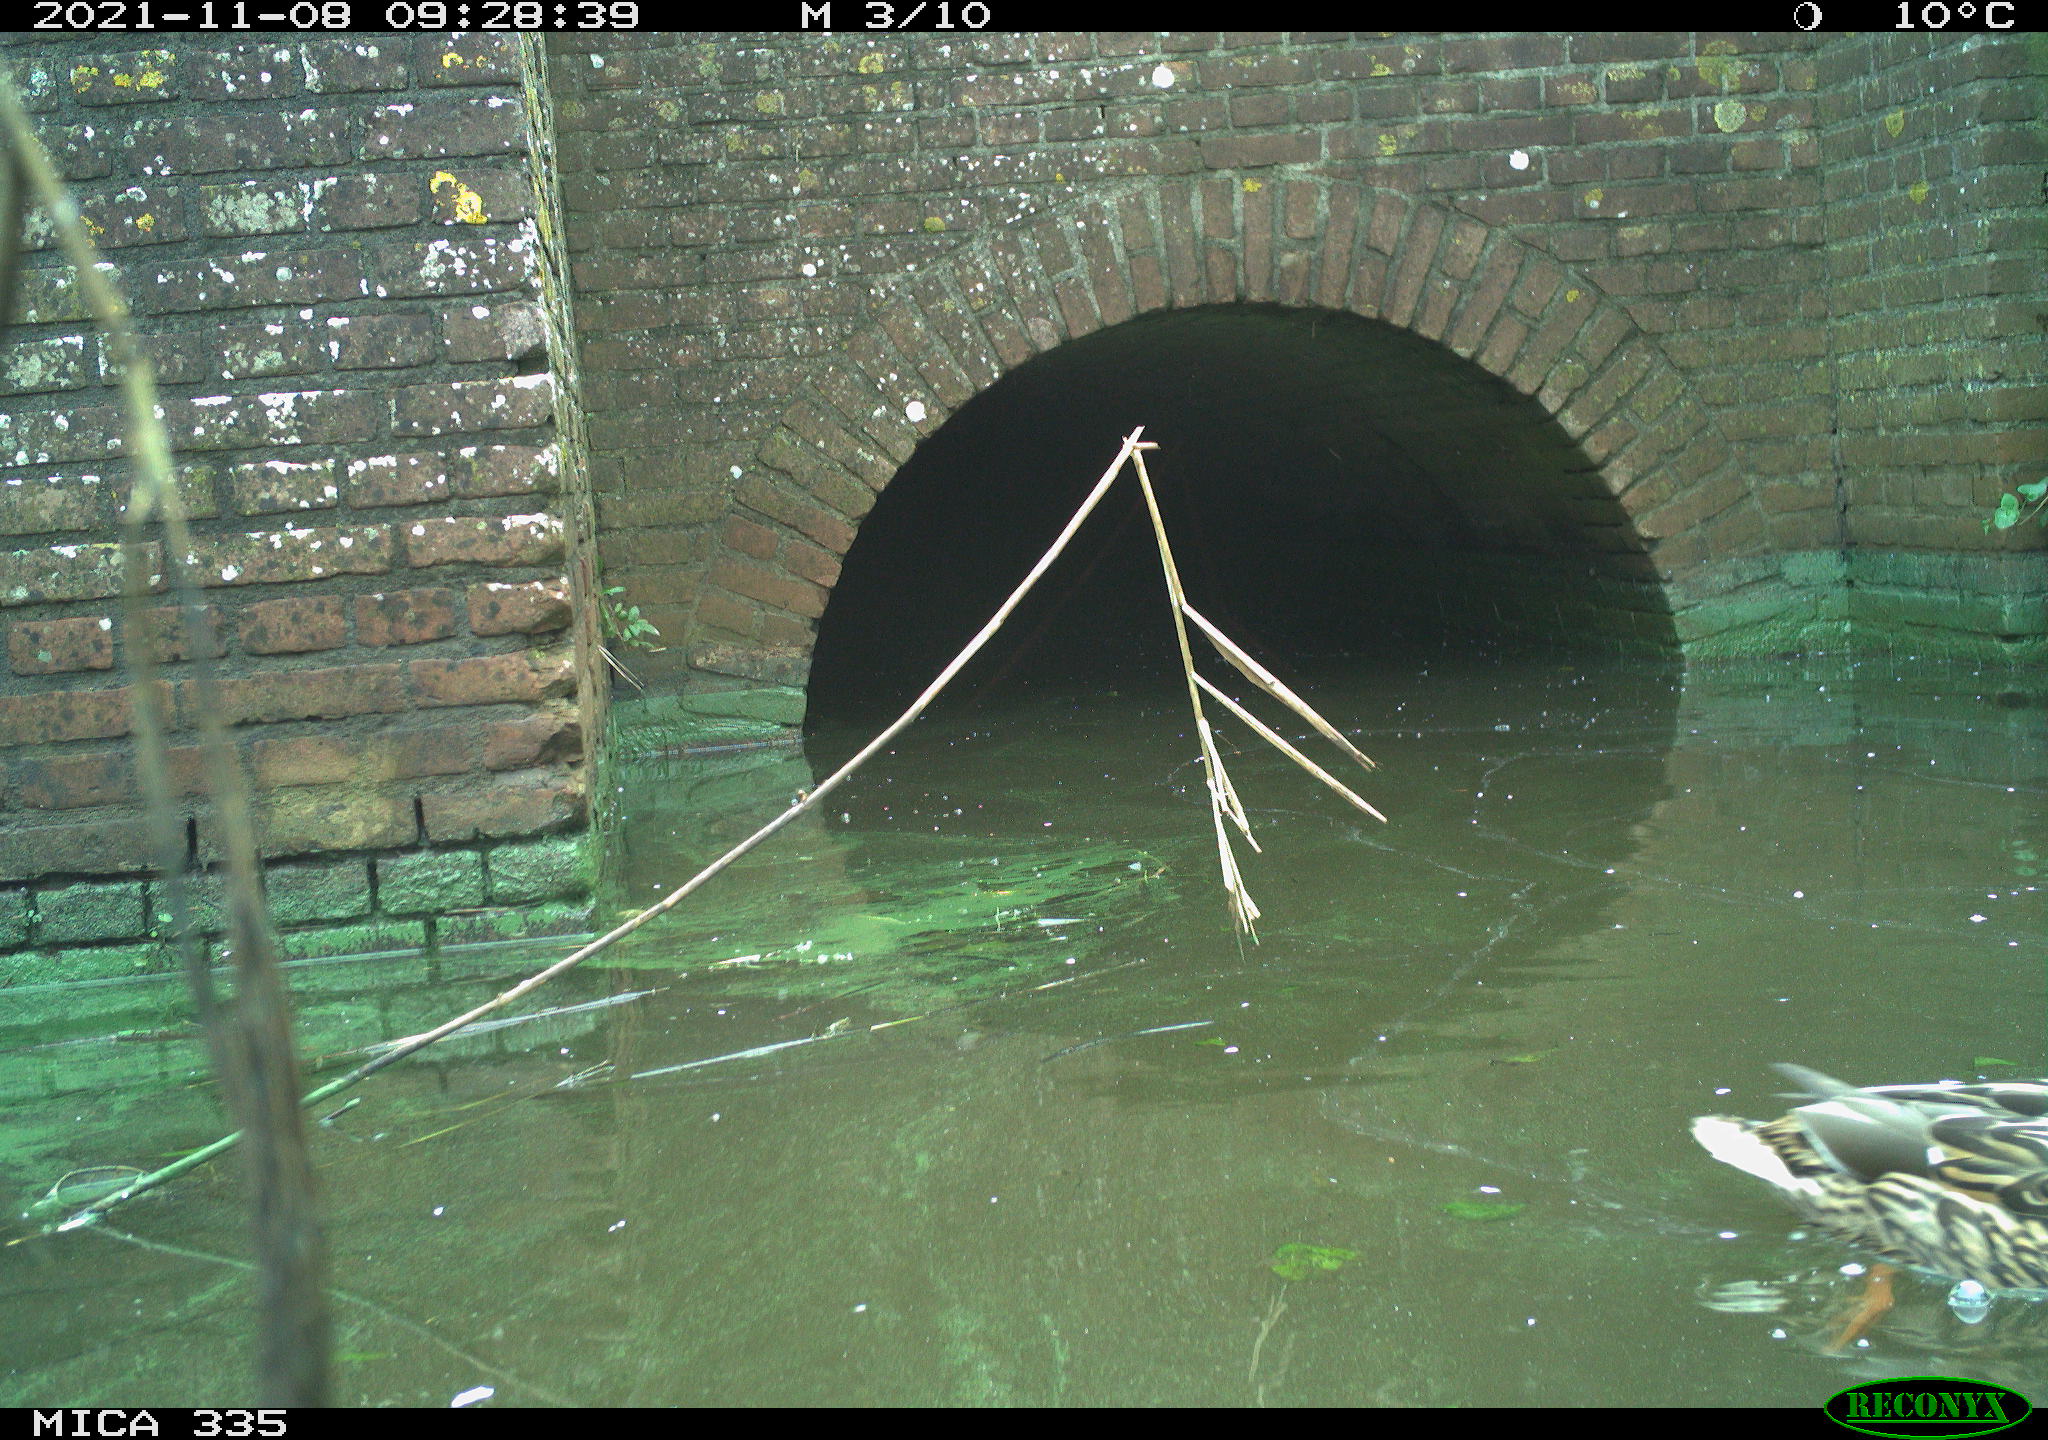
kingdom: Animalia
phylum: Chordata
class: Aves
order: Anseriformes
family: Anatidae
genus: Anas
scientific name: Anas platyrhynchos
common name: Mallard
